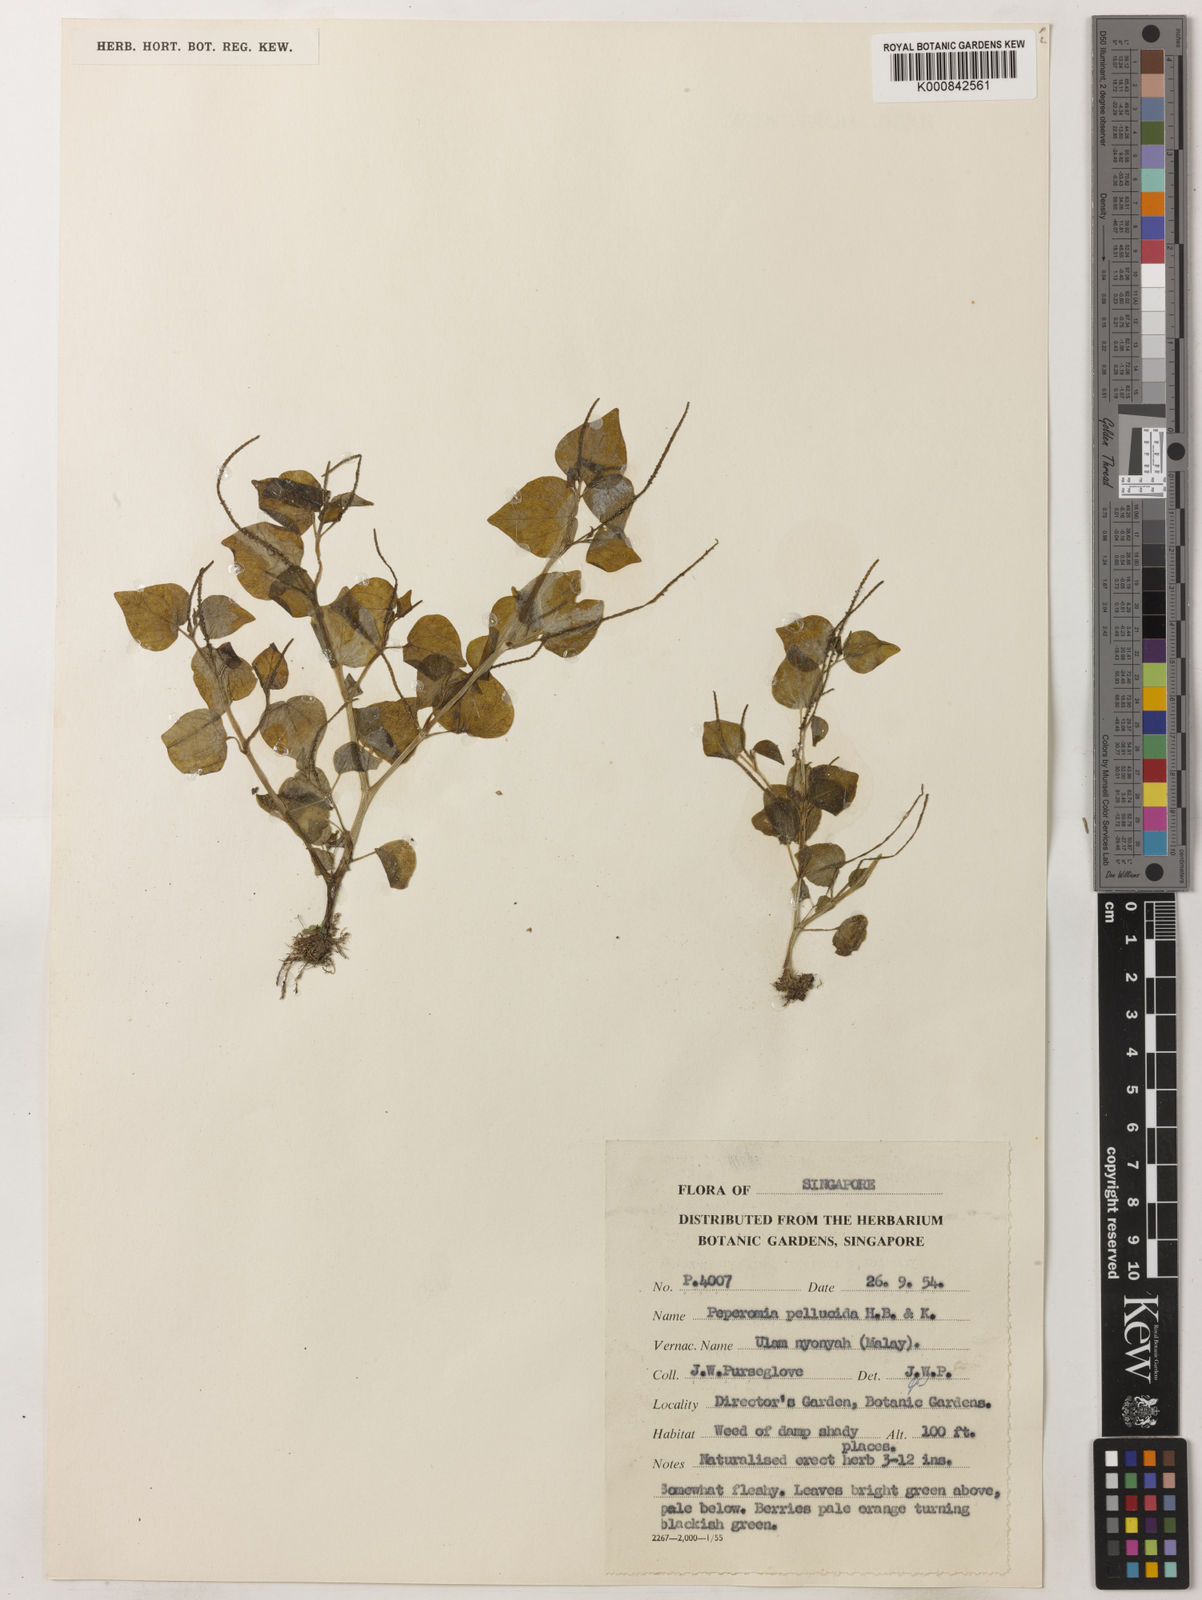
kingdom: Plantae
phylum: Tracheophyta
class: Magnoliopsida
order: Piperales
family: Piperaceae
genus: Peperomia
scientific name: Peperomia pellucida
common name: Man to man
